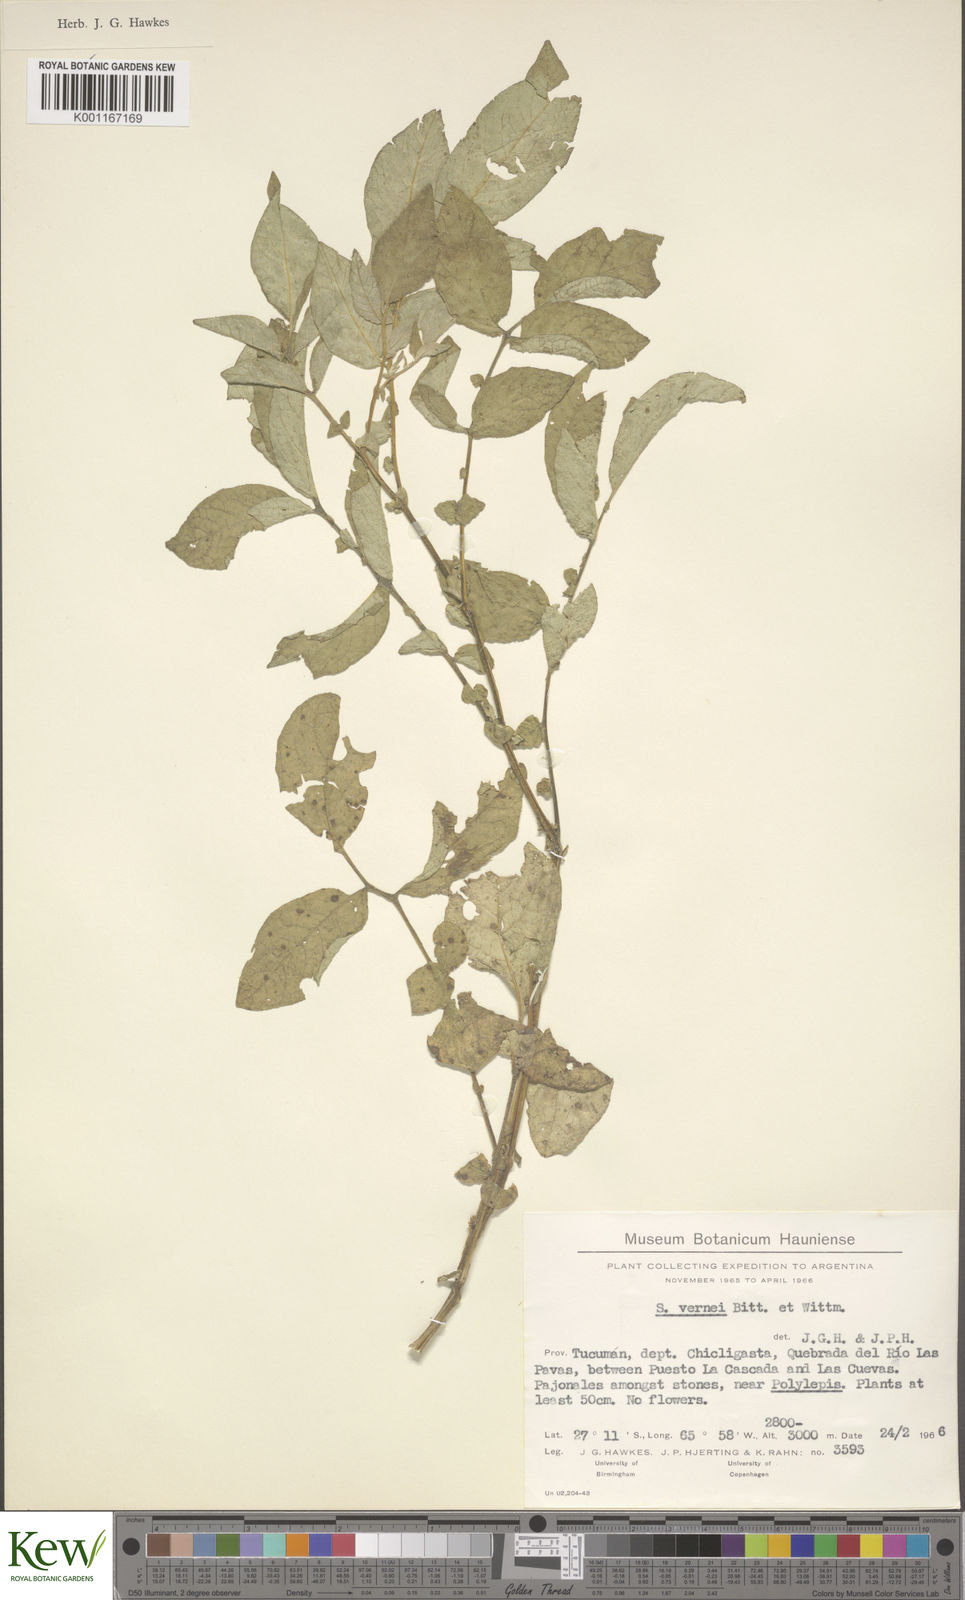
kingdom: Plantae
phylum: Tracheophyta
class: Magnoliopsida
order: Solanales
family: Solanaceae
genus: Solanum
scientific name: Solanum vernei
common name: Purple potato
